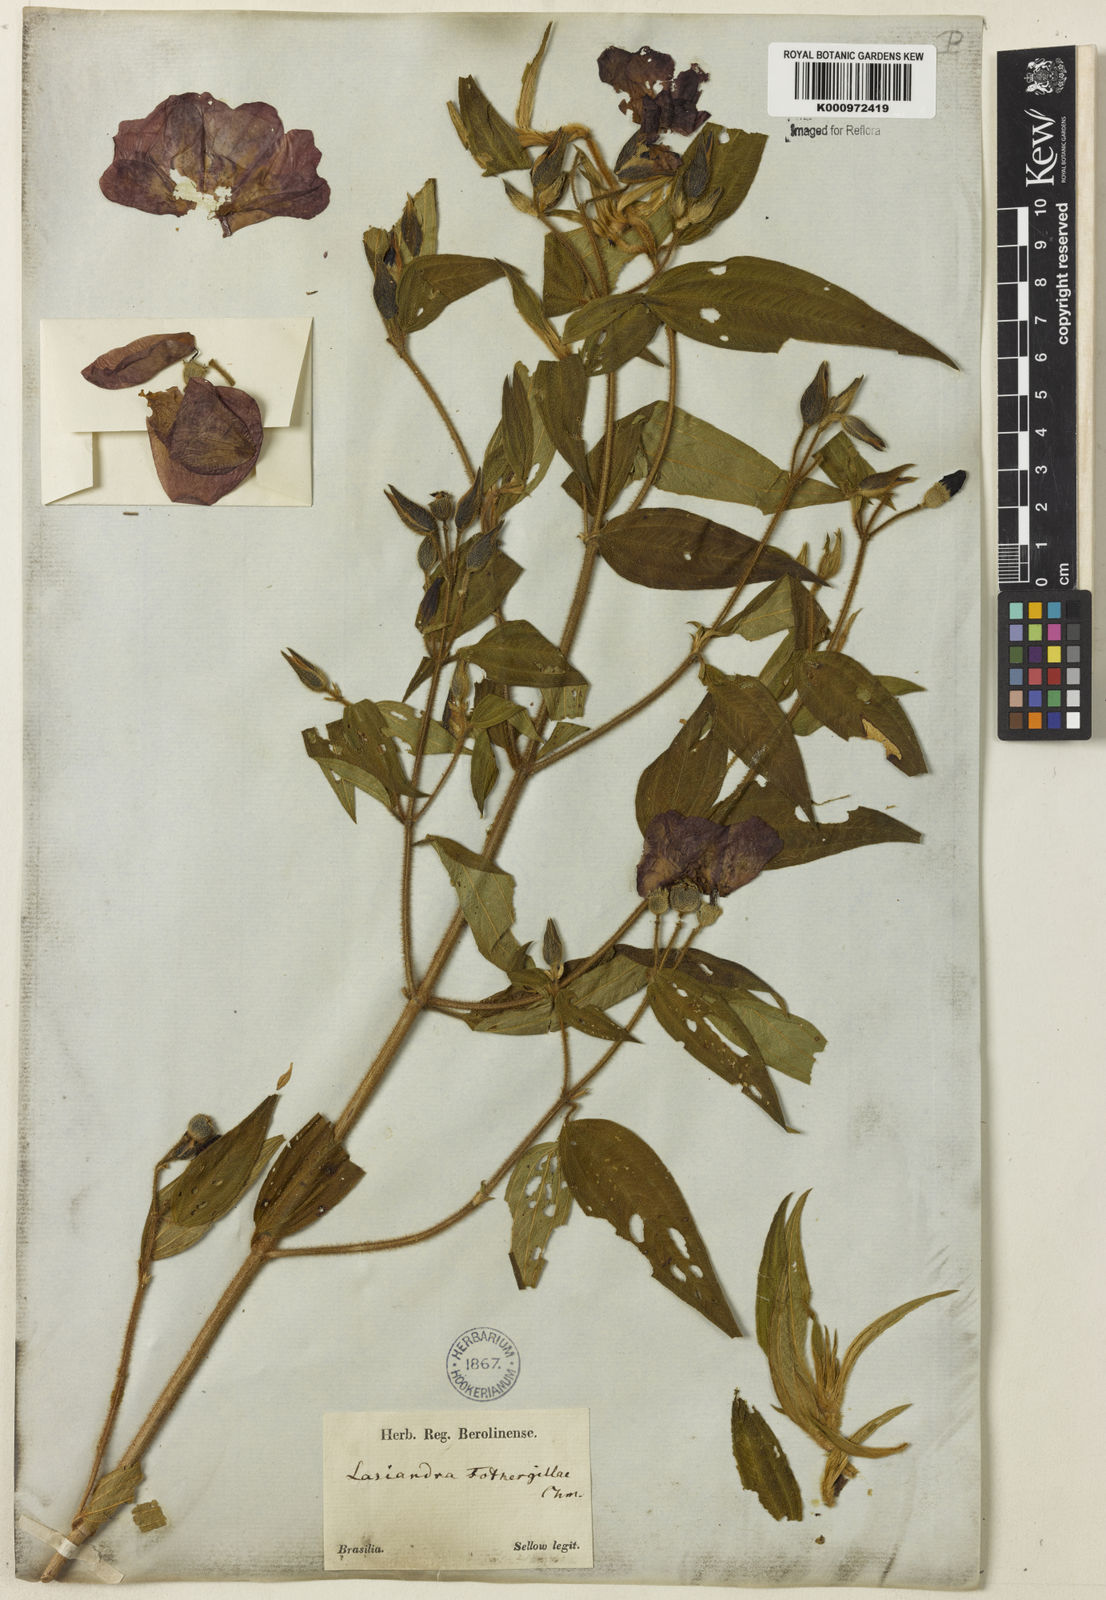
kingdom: Plantae
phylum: Tracheophyta
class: Magnoliopsida
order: Myrtales
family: Melastomataceae
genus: Pleroma
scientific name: Pleroma fothergillae
